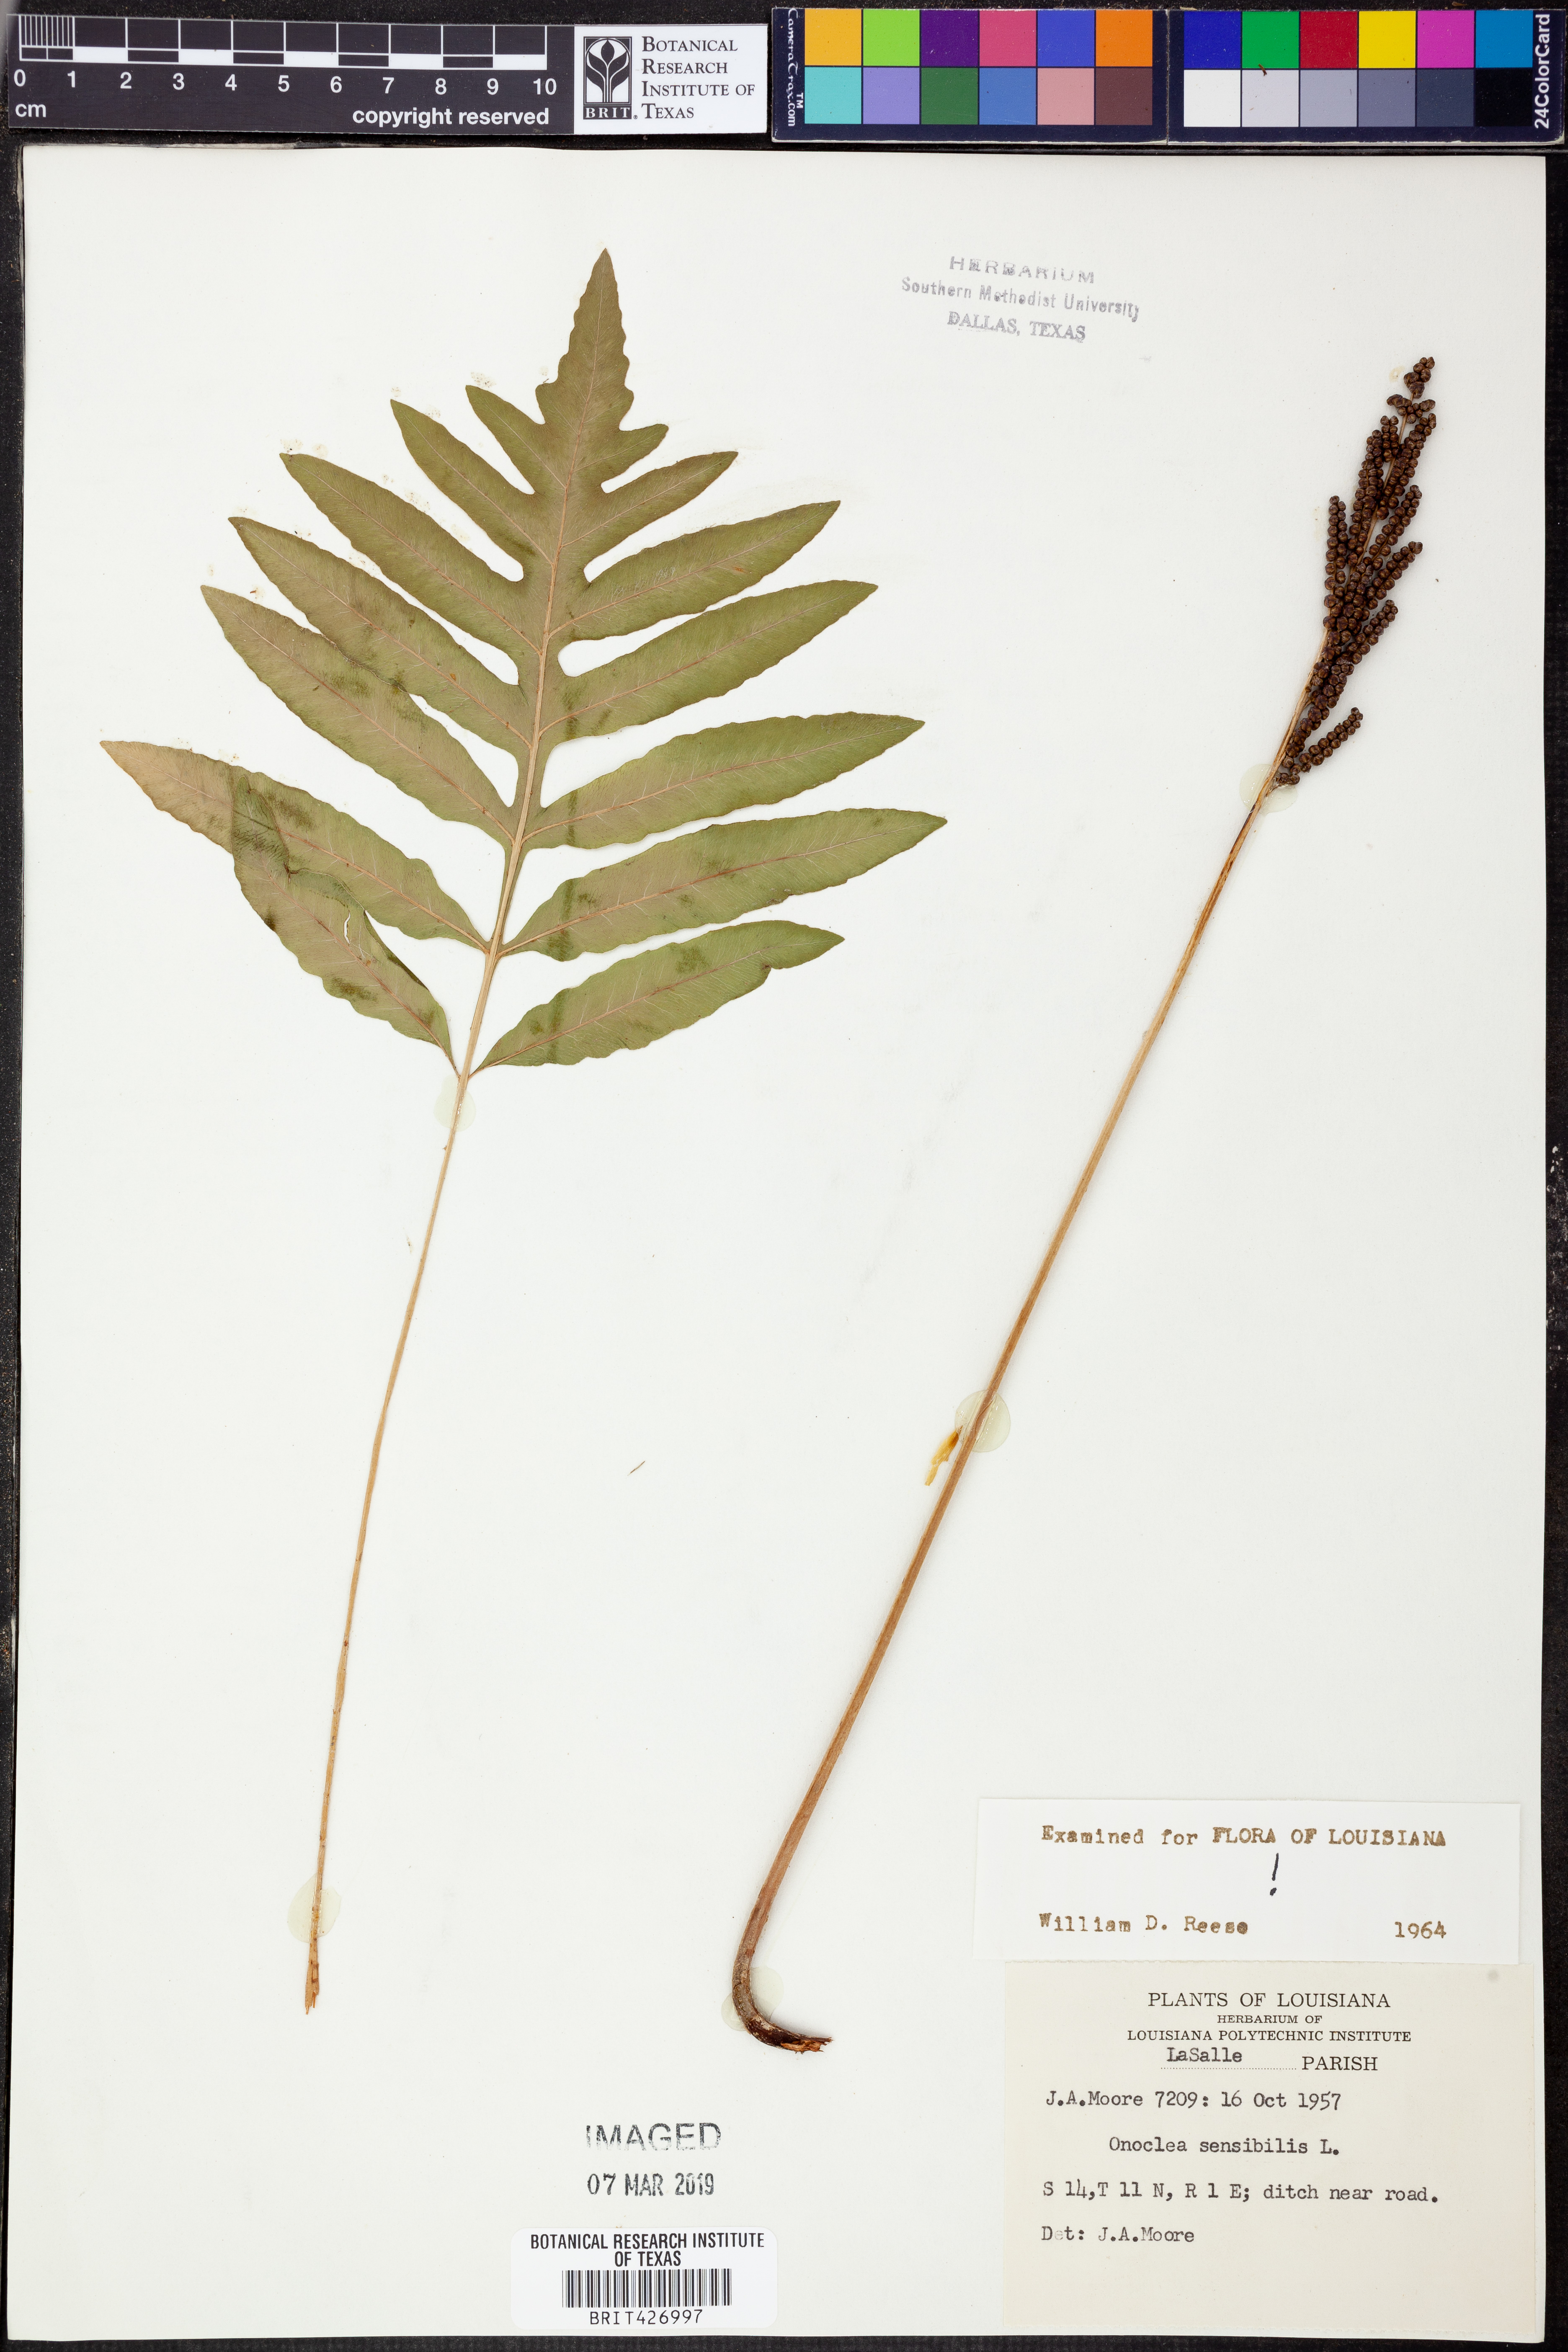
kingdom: Plantae
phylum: Tracheophyta
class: Polypodiopsida
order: Polypodiales
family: Onocleaceae
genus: Onoclea
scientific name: Onoclea sensibilis
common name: Sensitive fern
